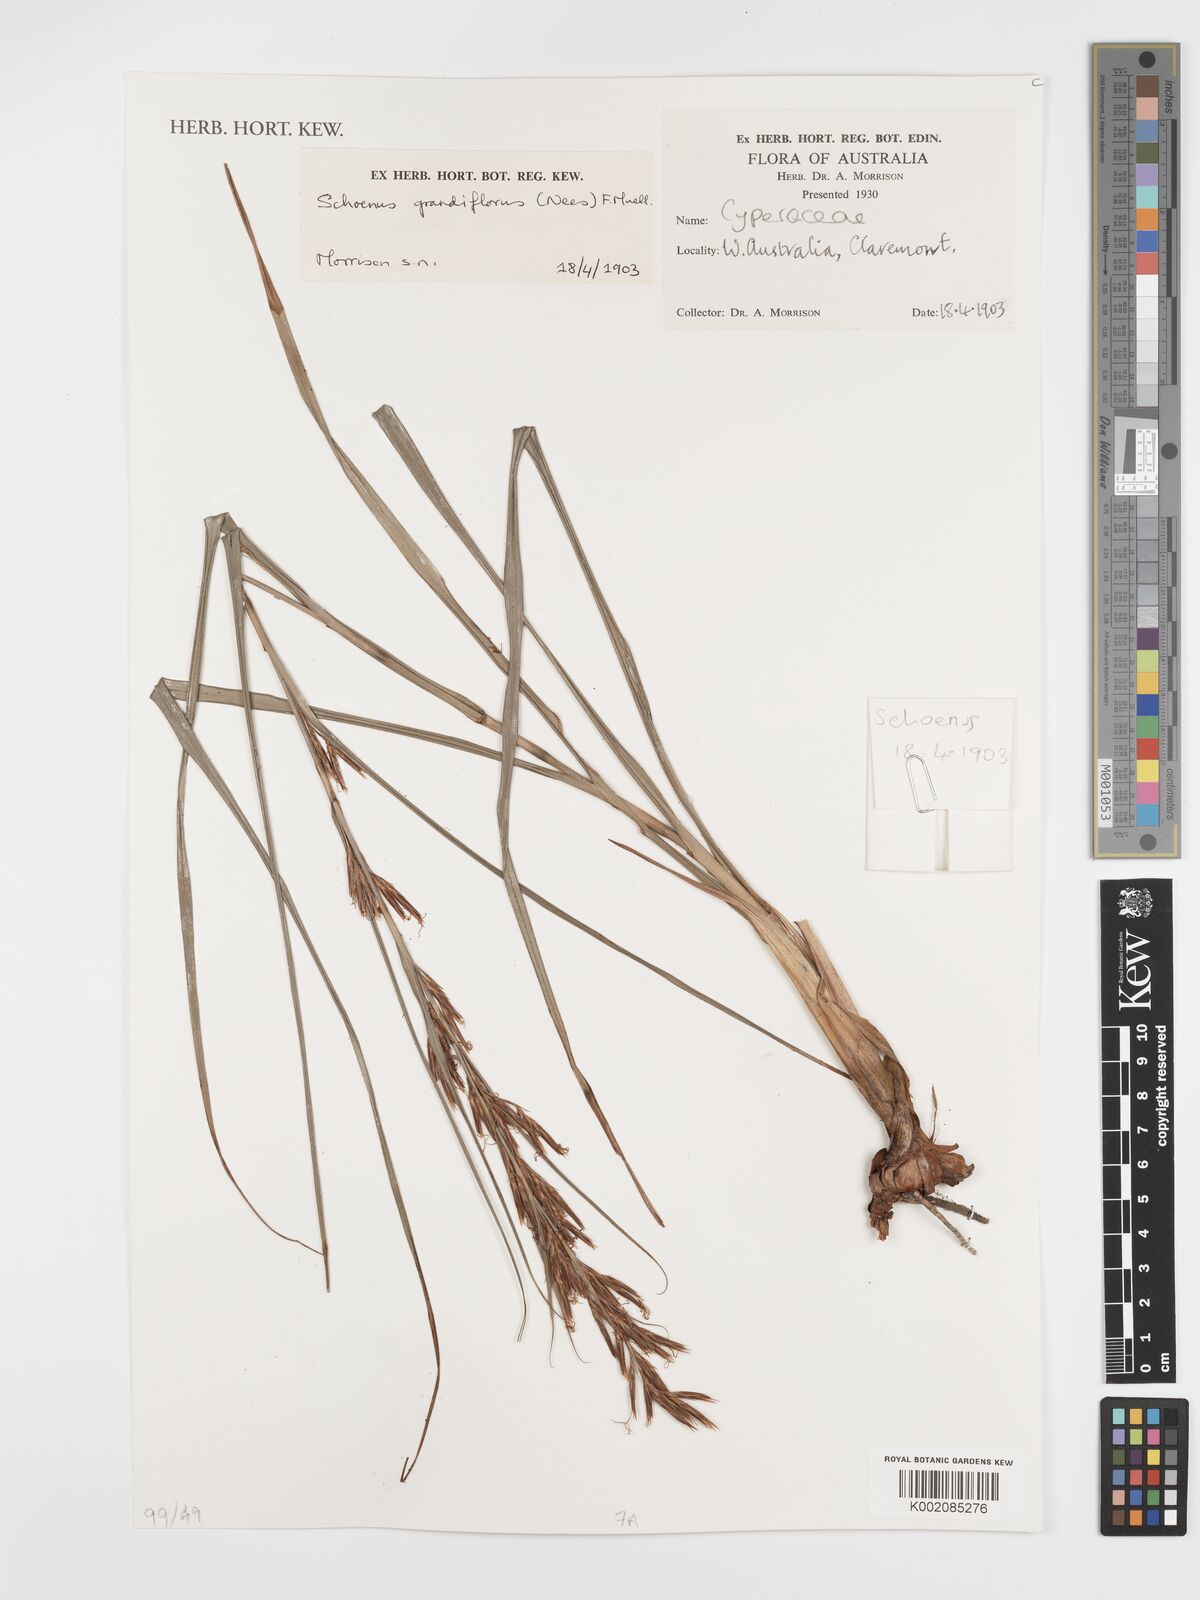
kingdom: Plantae
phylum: Tracheophyta
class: Liliopsida
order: Poales
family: Cyperaceae
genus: Schoenus
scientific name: Schoenus grandiflorus
